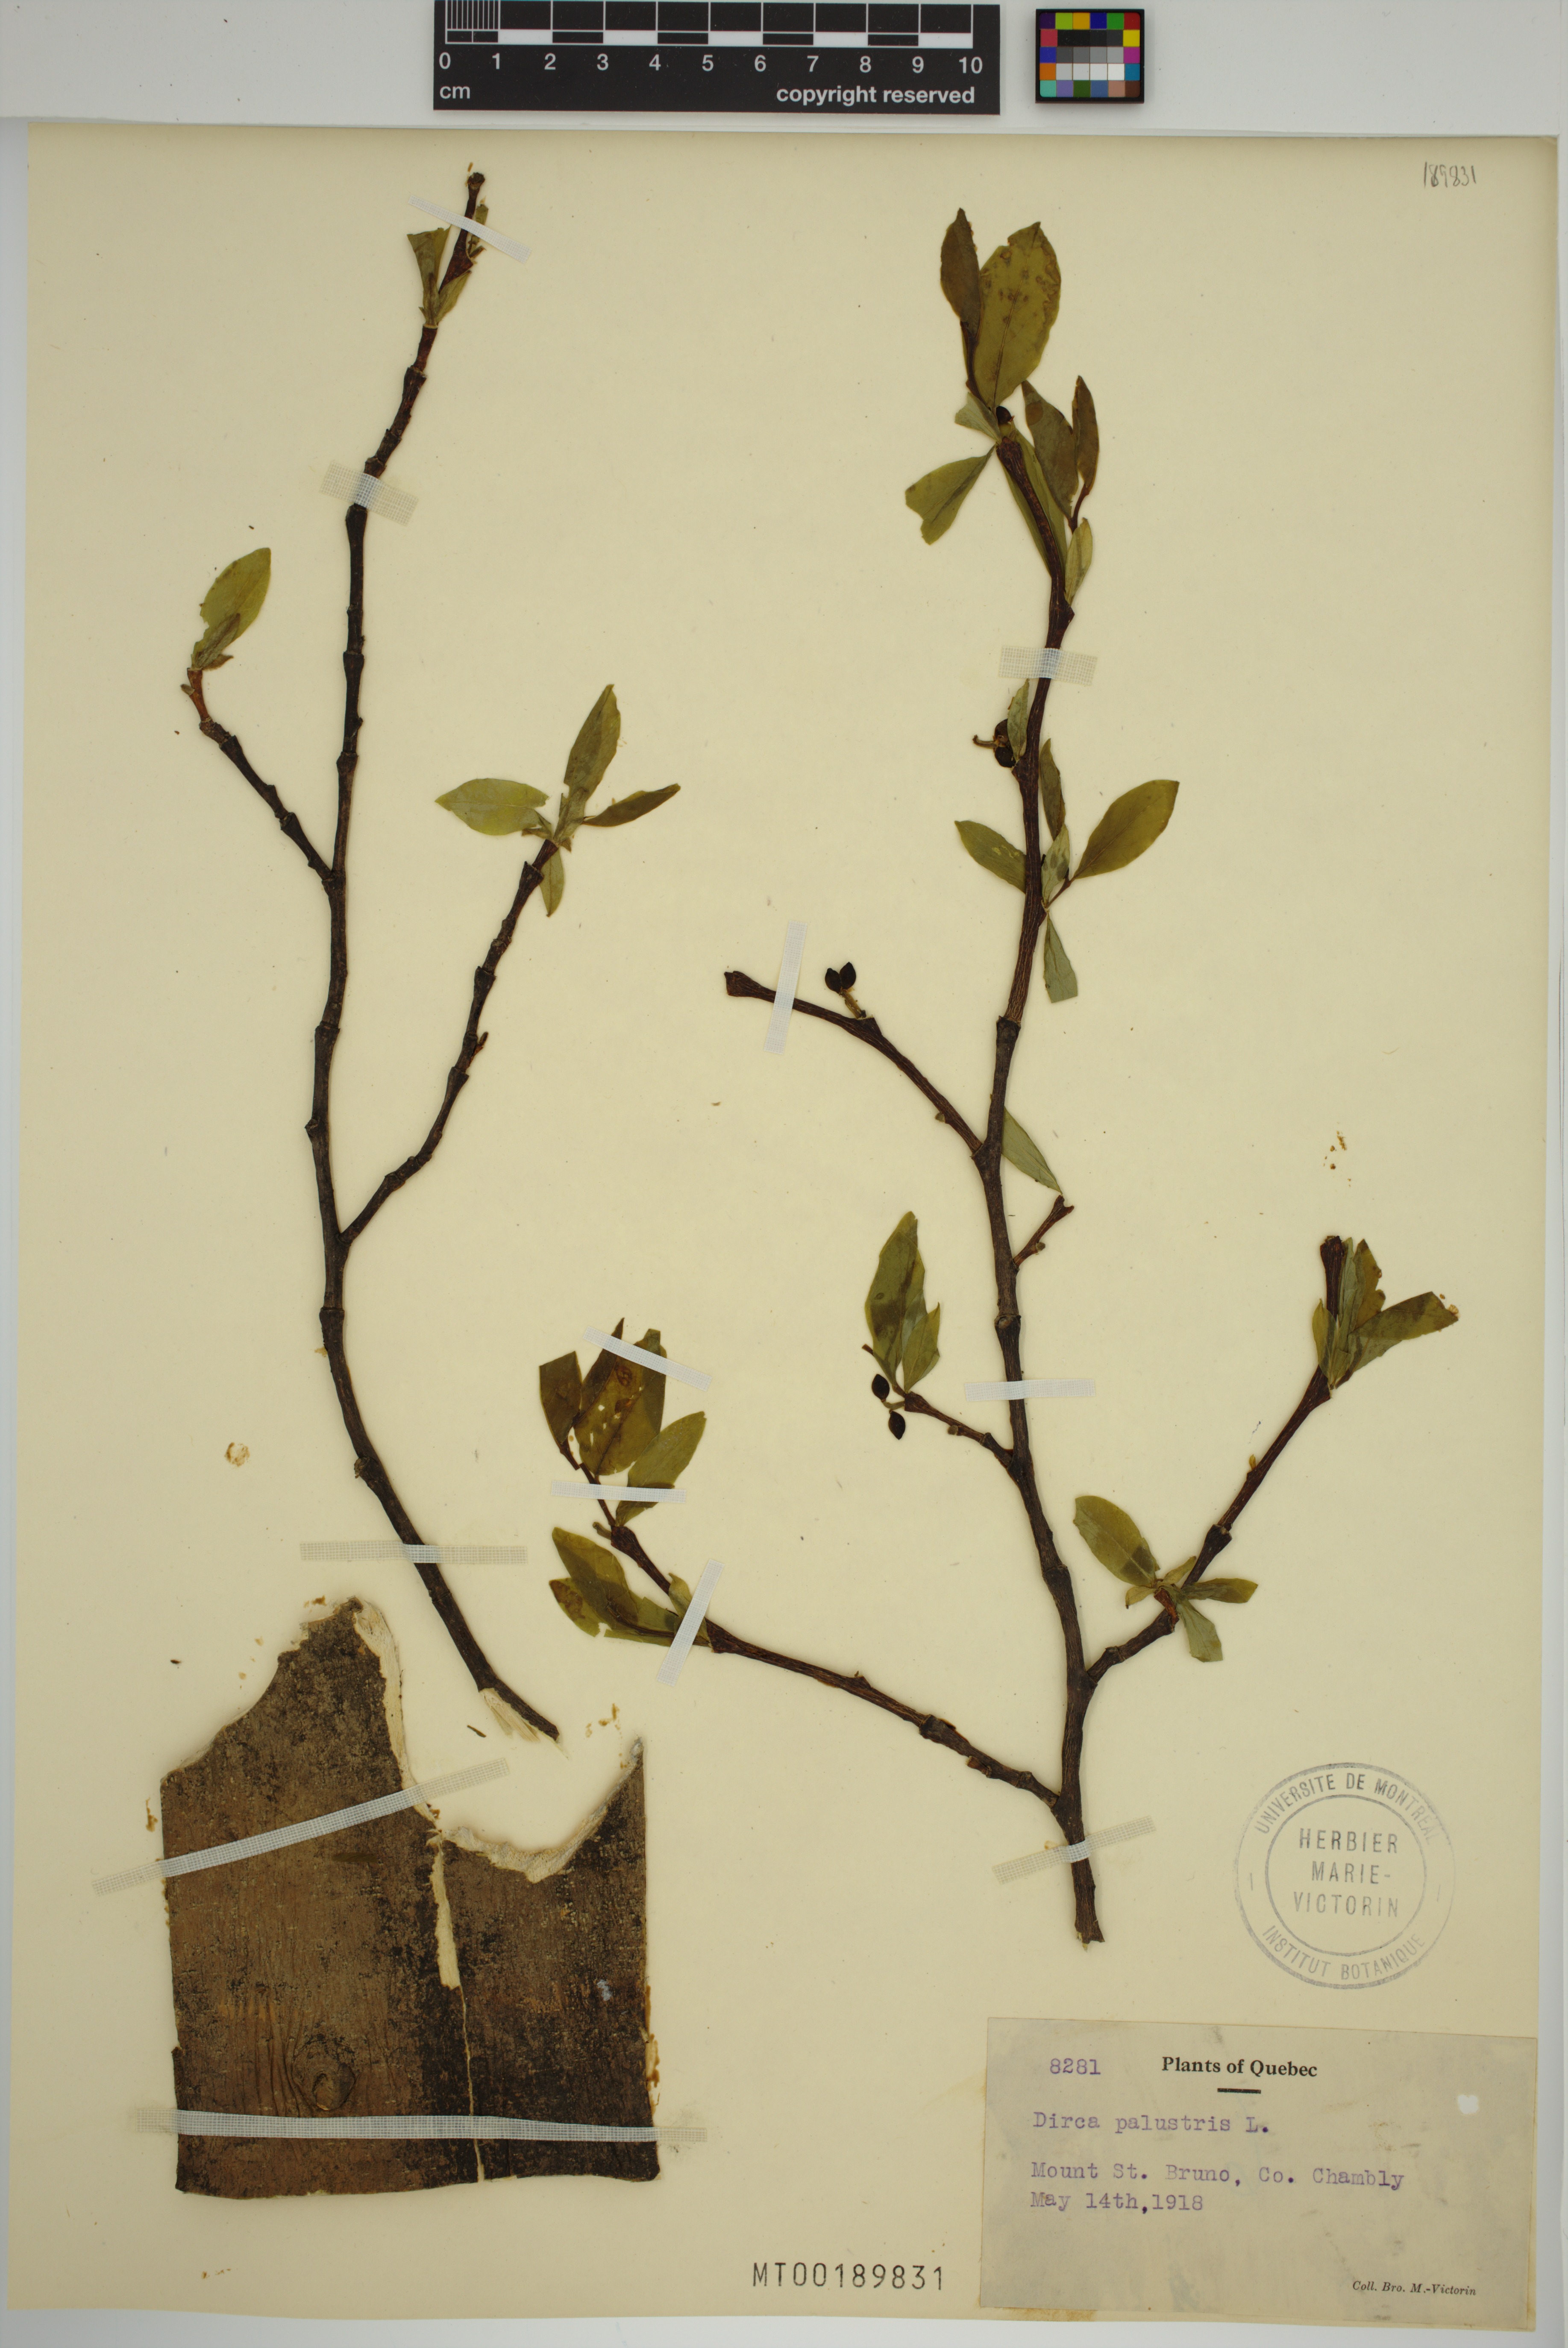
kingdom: Plantae
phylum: Tracheophyta
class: Magnoliopsida
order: Malvales
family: Thymelaeaceae
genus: Dirca
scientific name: Dirca palustris
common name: Leatherwood
